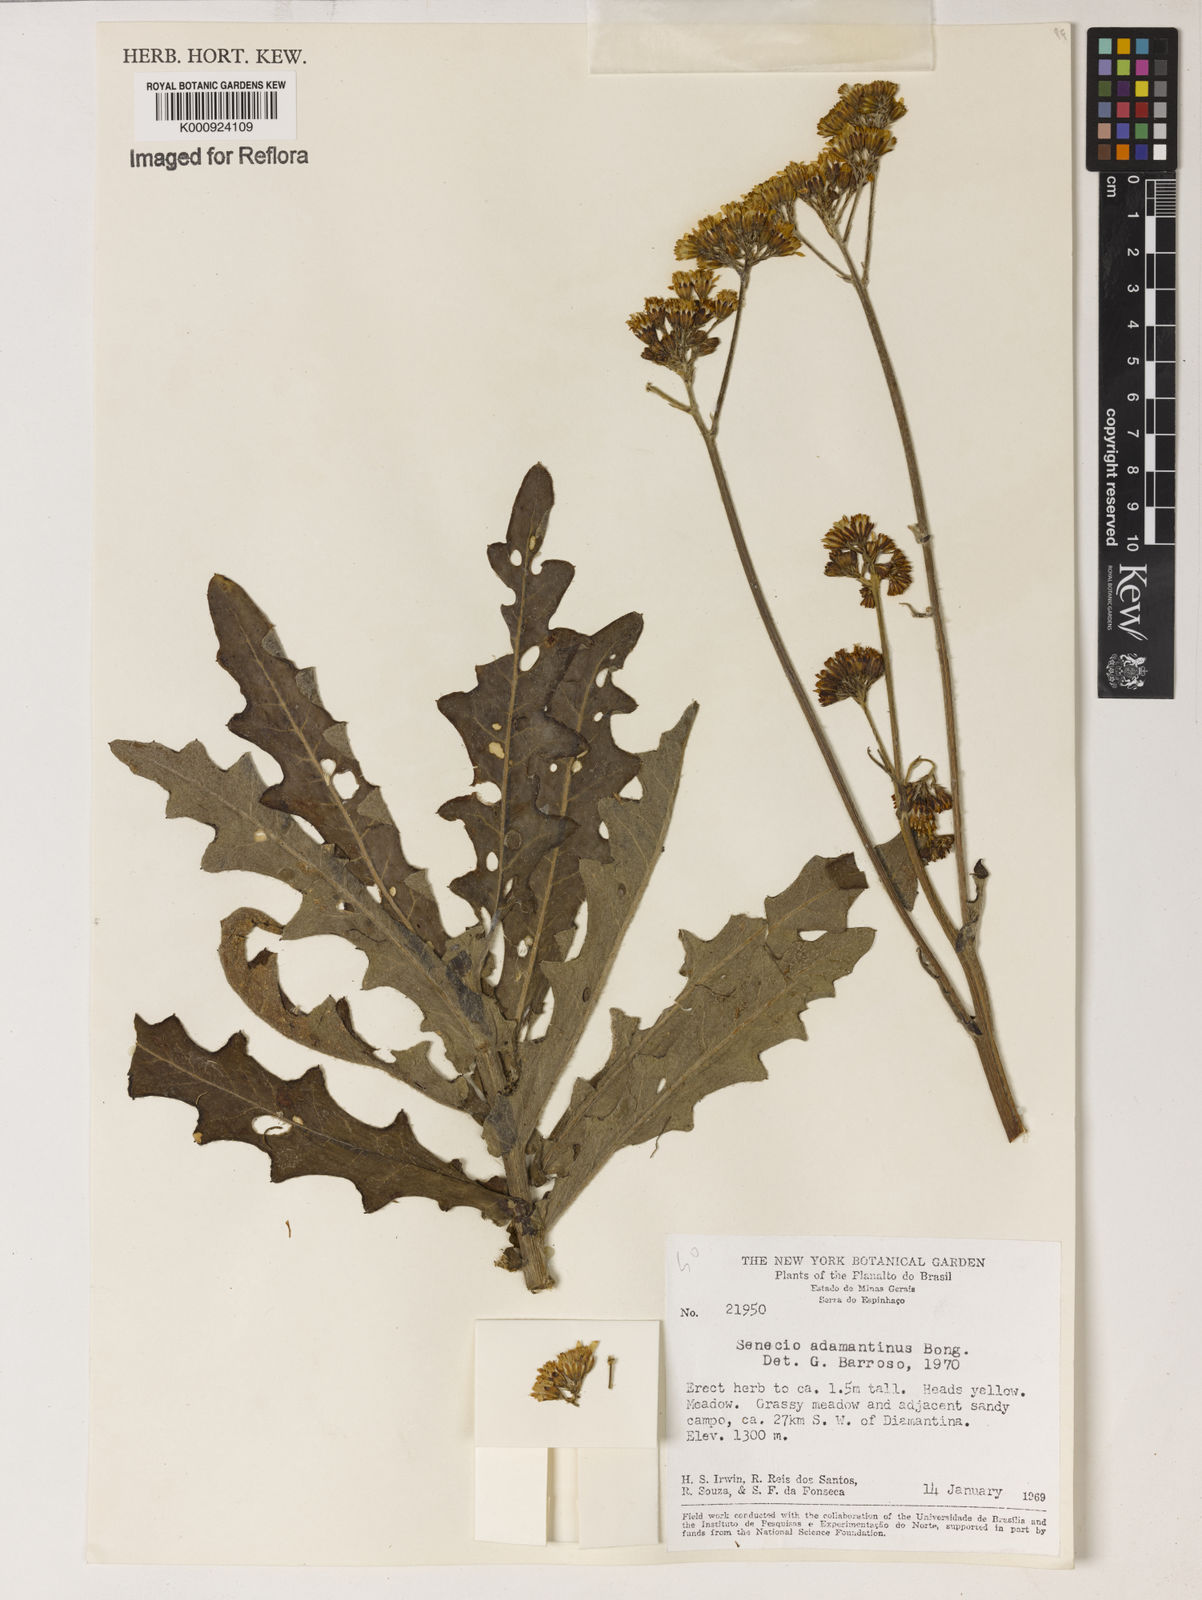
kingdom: Plantae
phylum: Tracheophyta
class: Magnoliopsida
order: Asterales
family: Asteraceae
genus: Senecio
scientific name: Senecio
